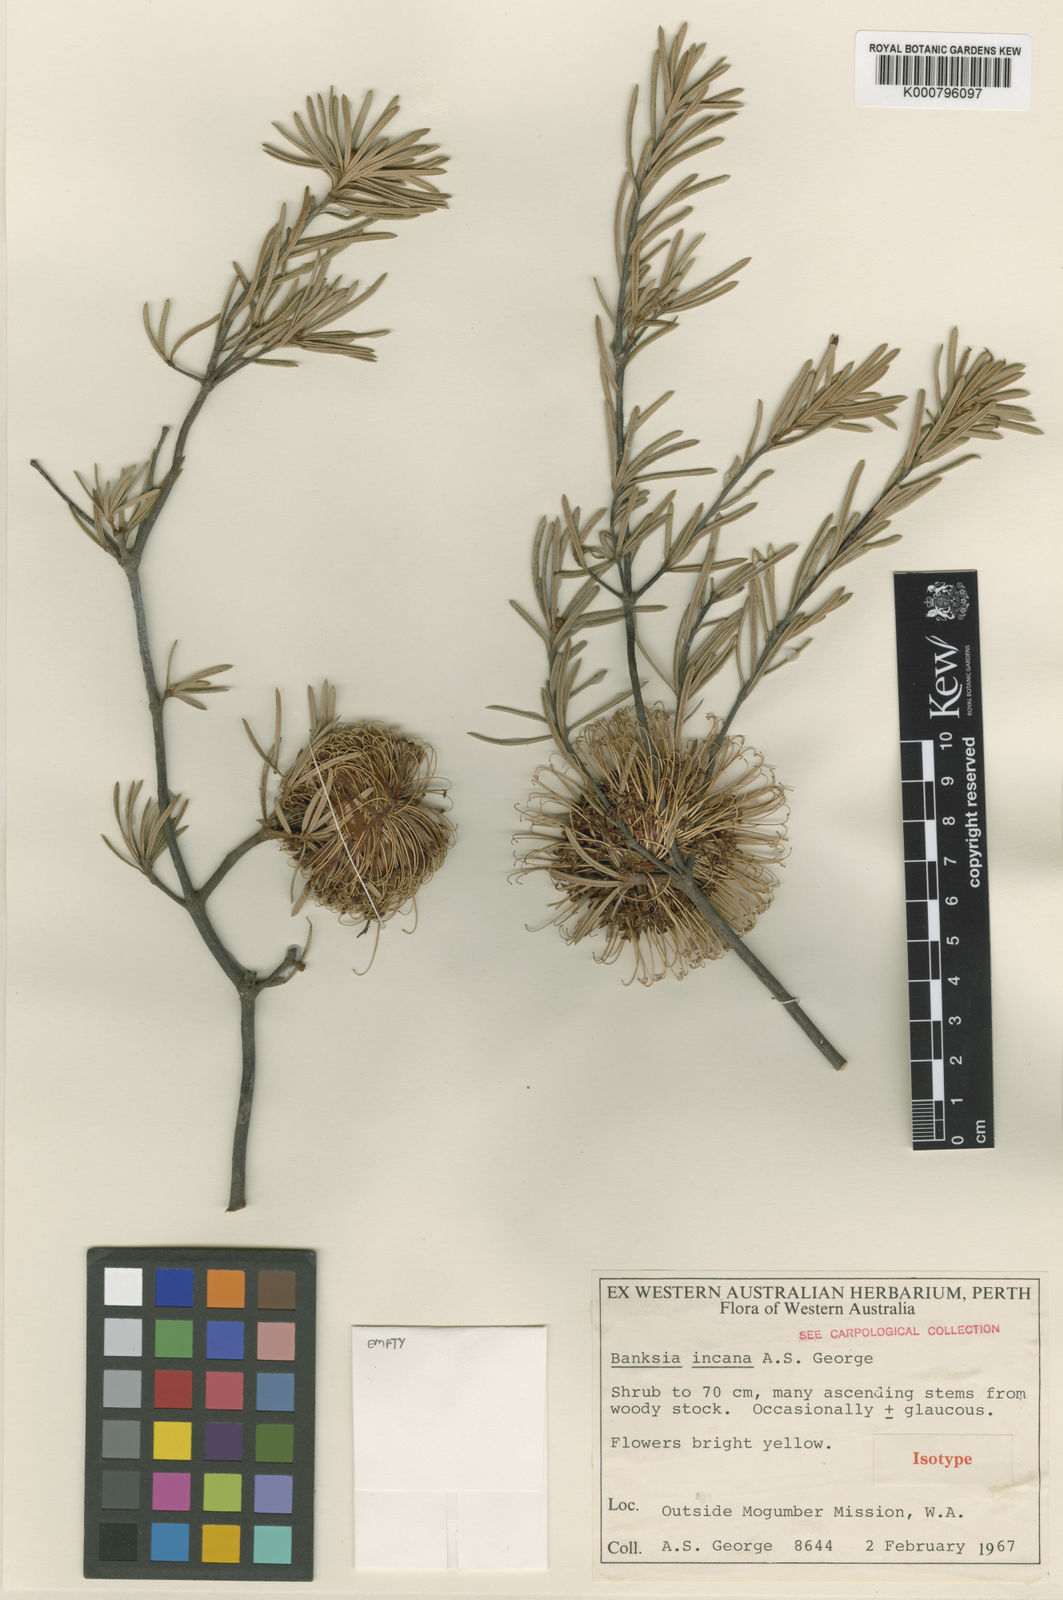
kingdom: Plantae
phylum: Tracheophyta
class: Magnoliopsida
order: Proteales
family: Proteaceae
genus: Banksia
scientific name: Banksia incana
